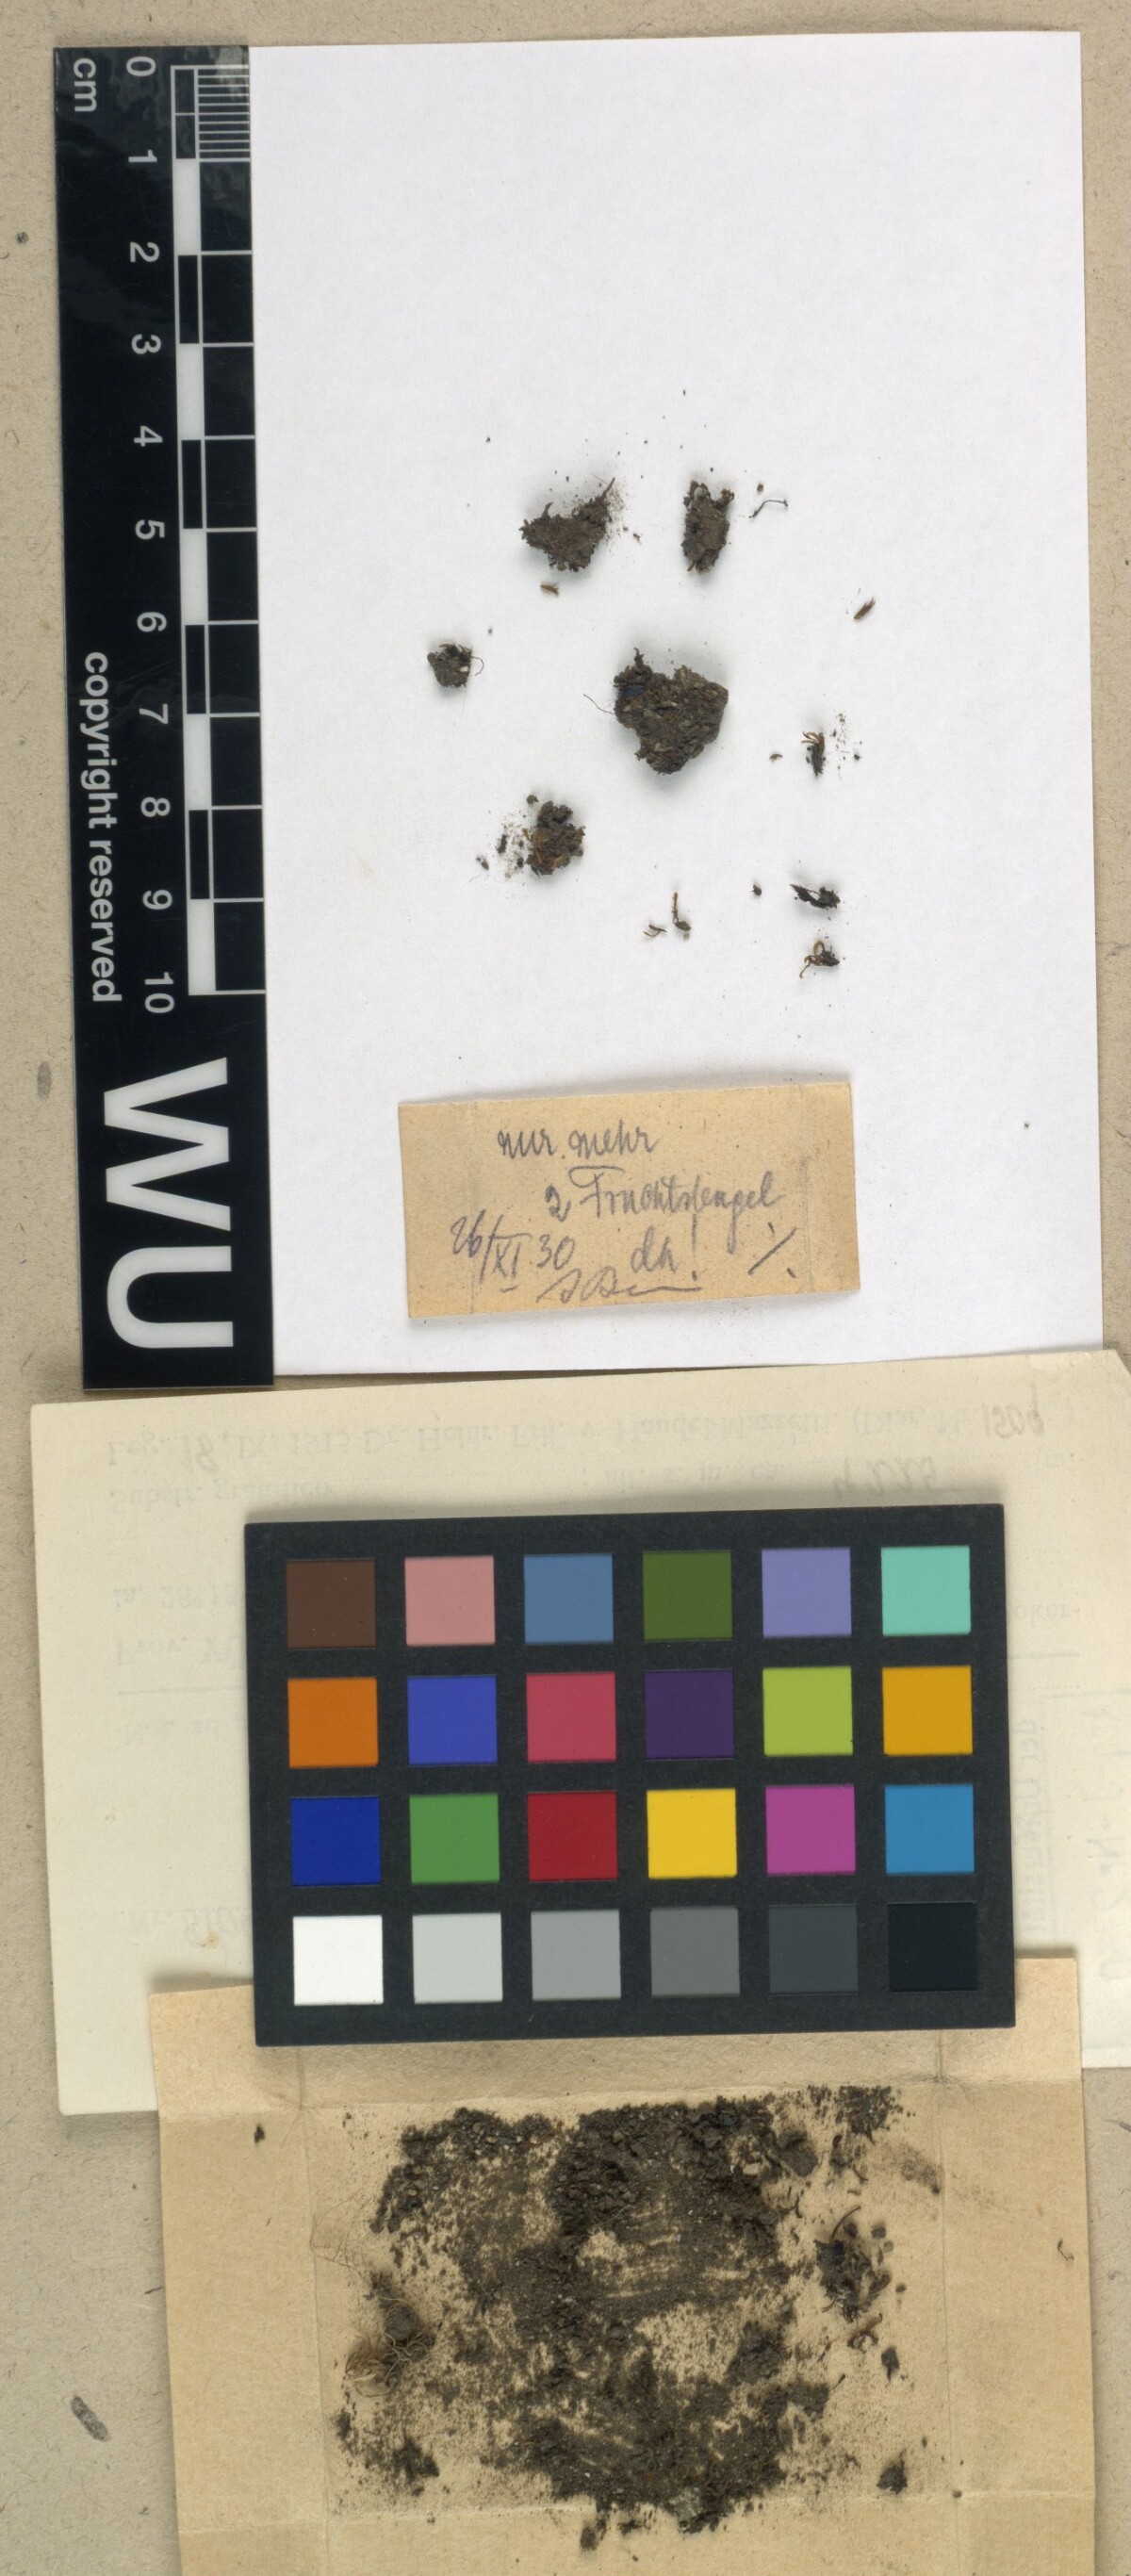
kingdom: Plantae
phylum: Bryophyta
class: Bryopsida
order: Splachnales
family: Splachnaceae
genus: Tayloria
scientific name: Tayloria alpicola
